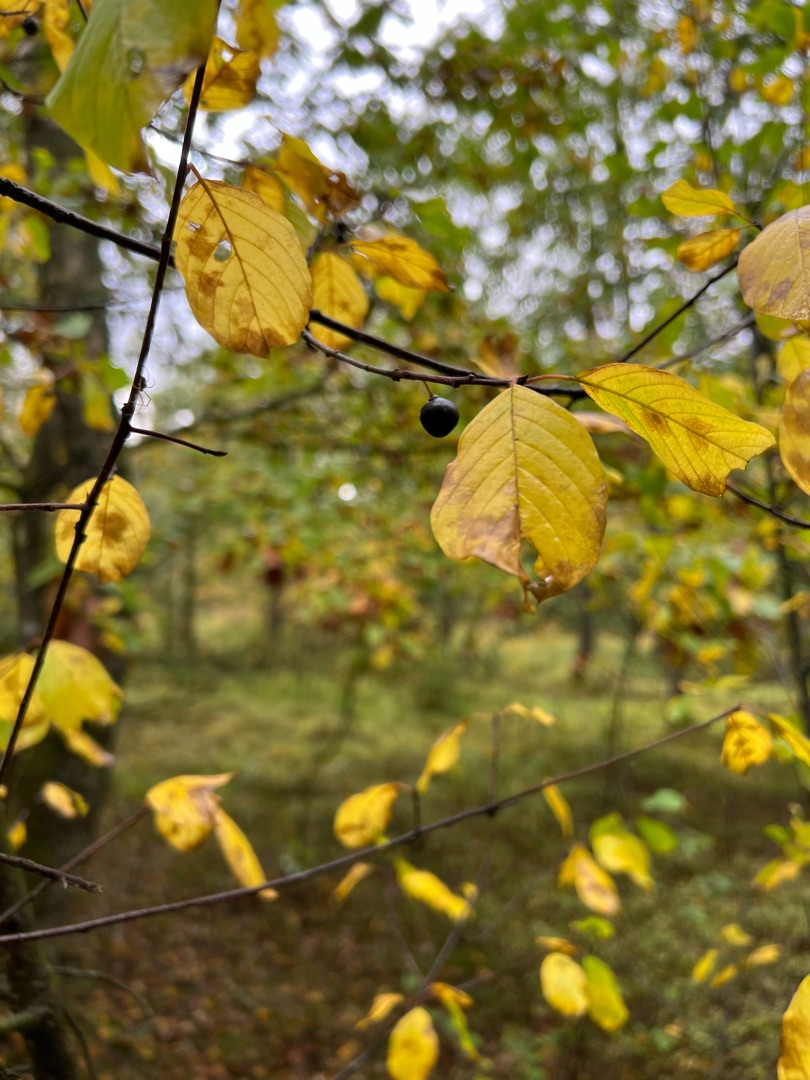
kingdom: Plantae
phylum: Tracheophyta
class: Magnoliopsida
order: Rosales
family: Rhamnaceae
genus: Frangula
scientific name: Frangula alnus
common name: Tørst
